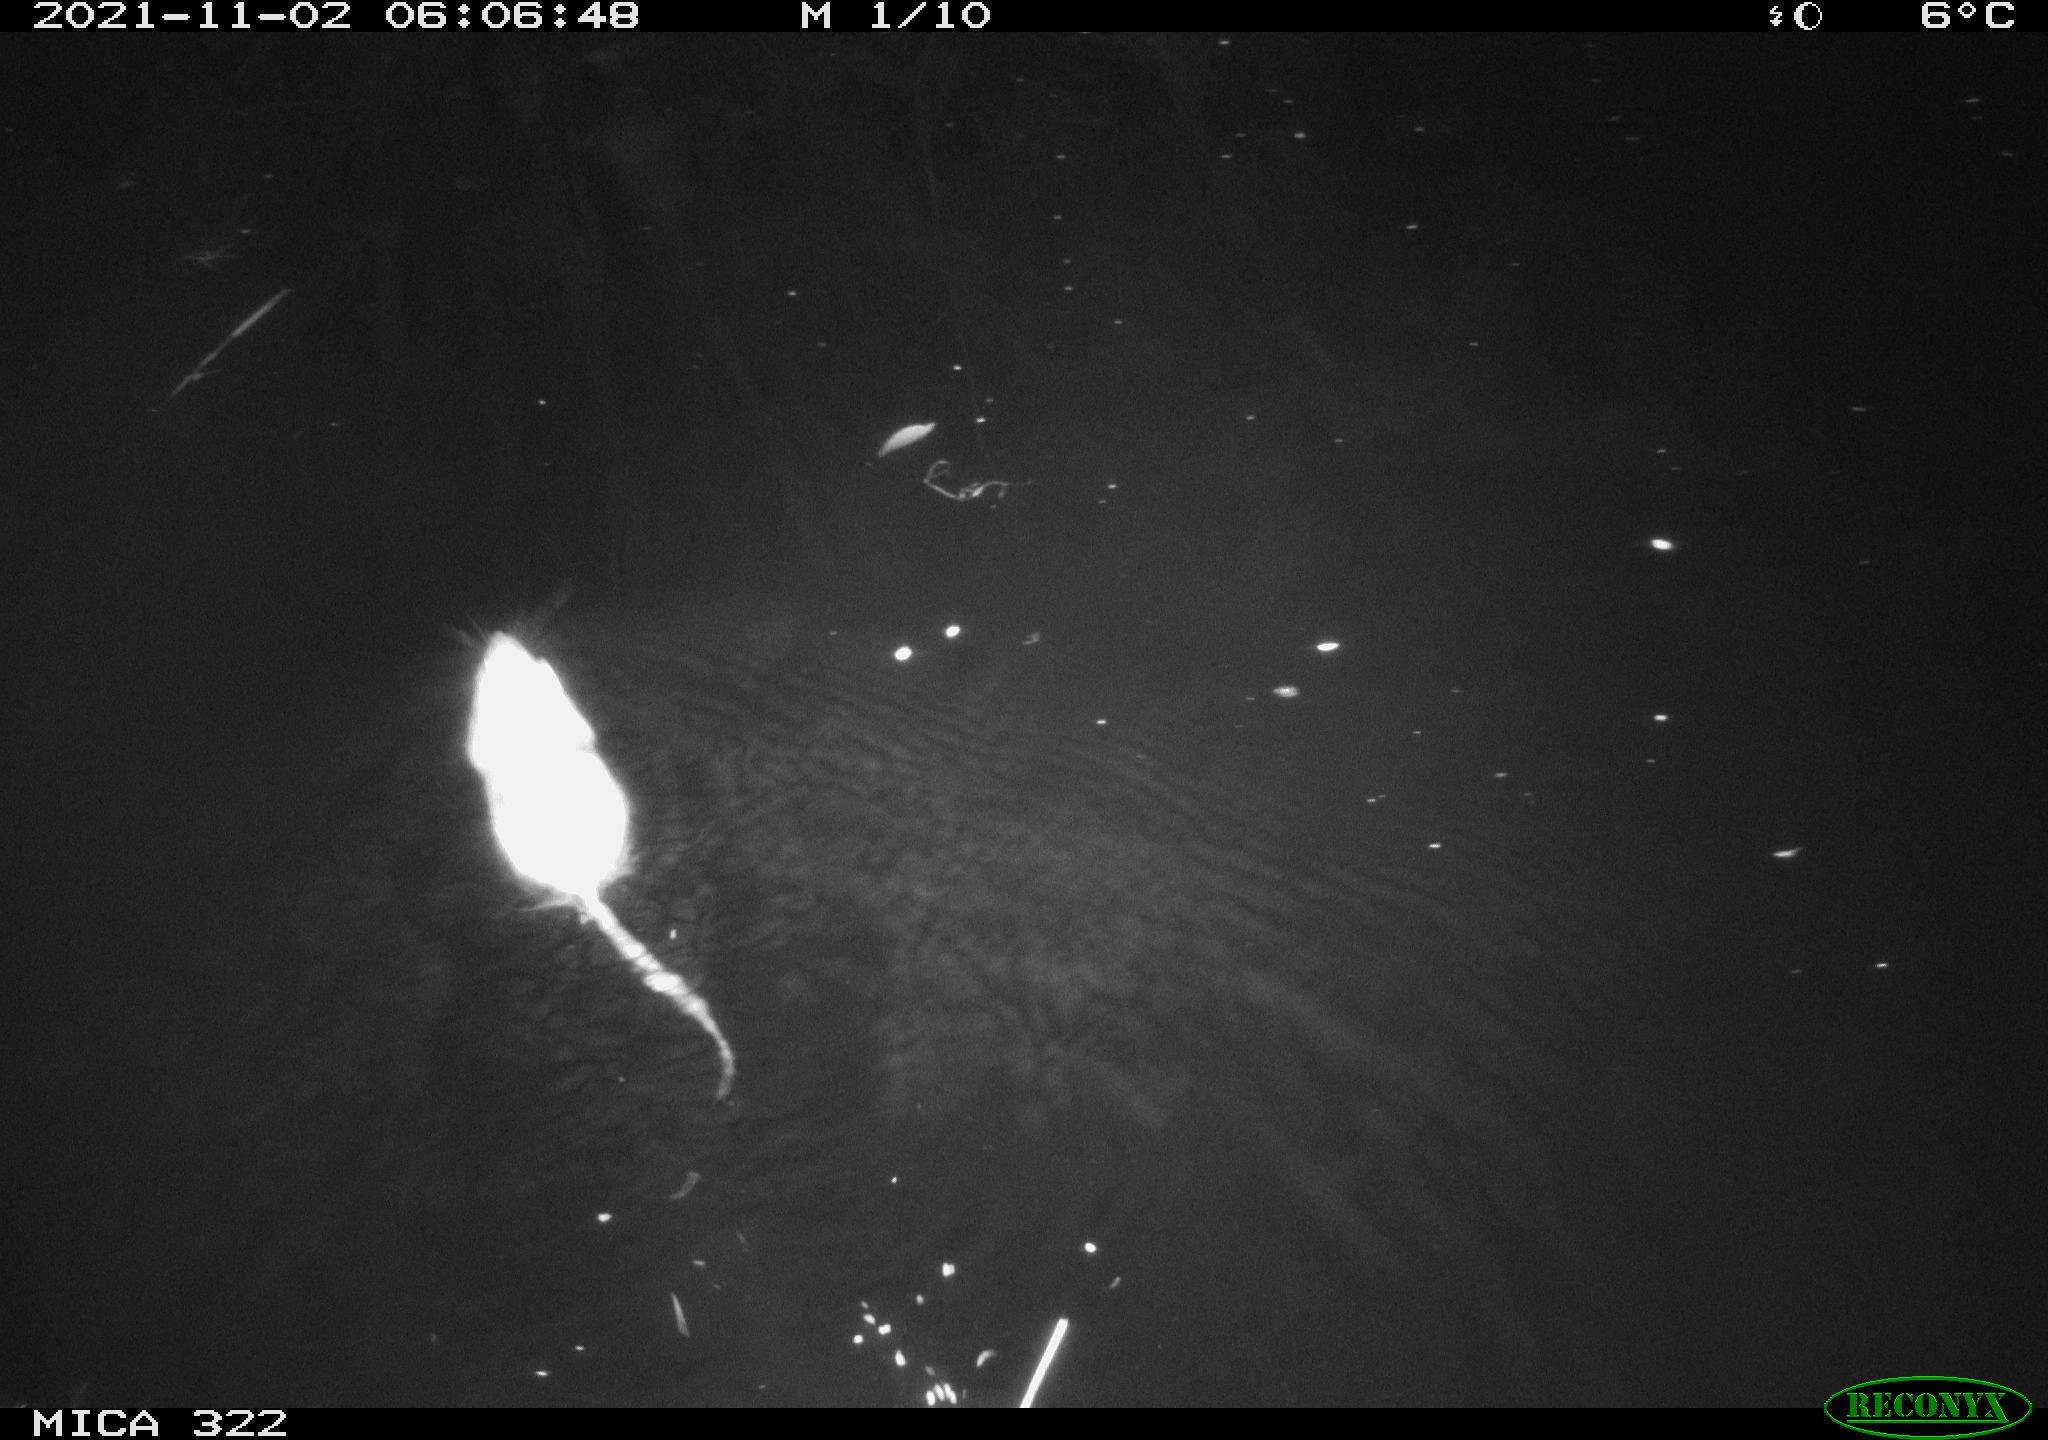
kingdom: Animalia
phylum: Chordata
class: Mammalia
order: Rodentia
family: Muridae
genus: Rattus
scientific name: Rattus norvegicus
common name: Brown rat
